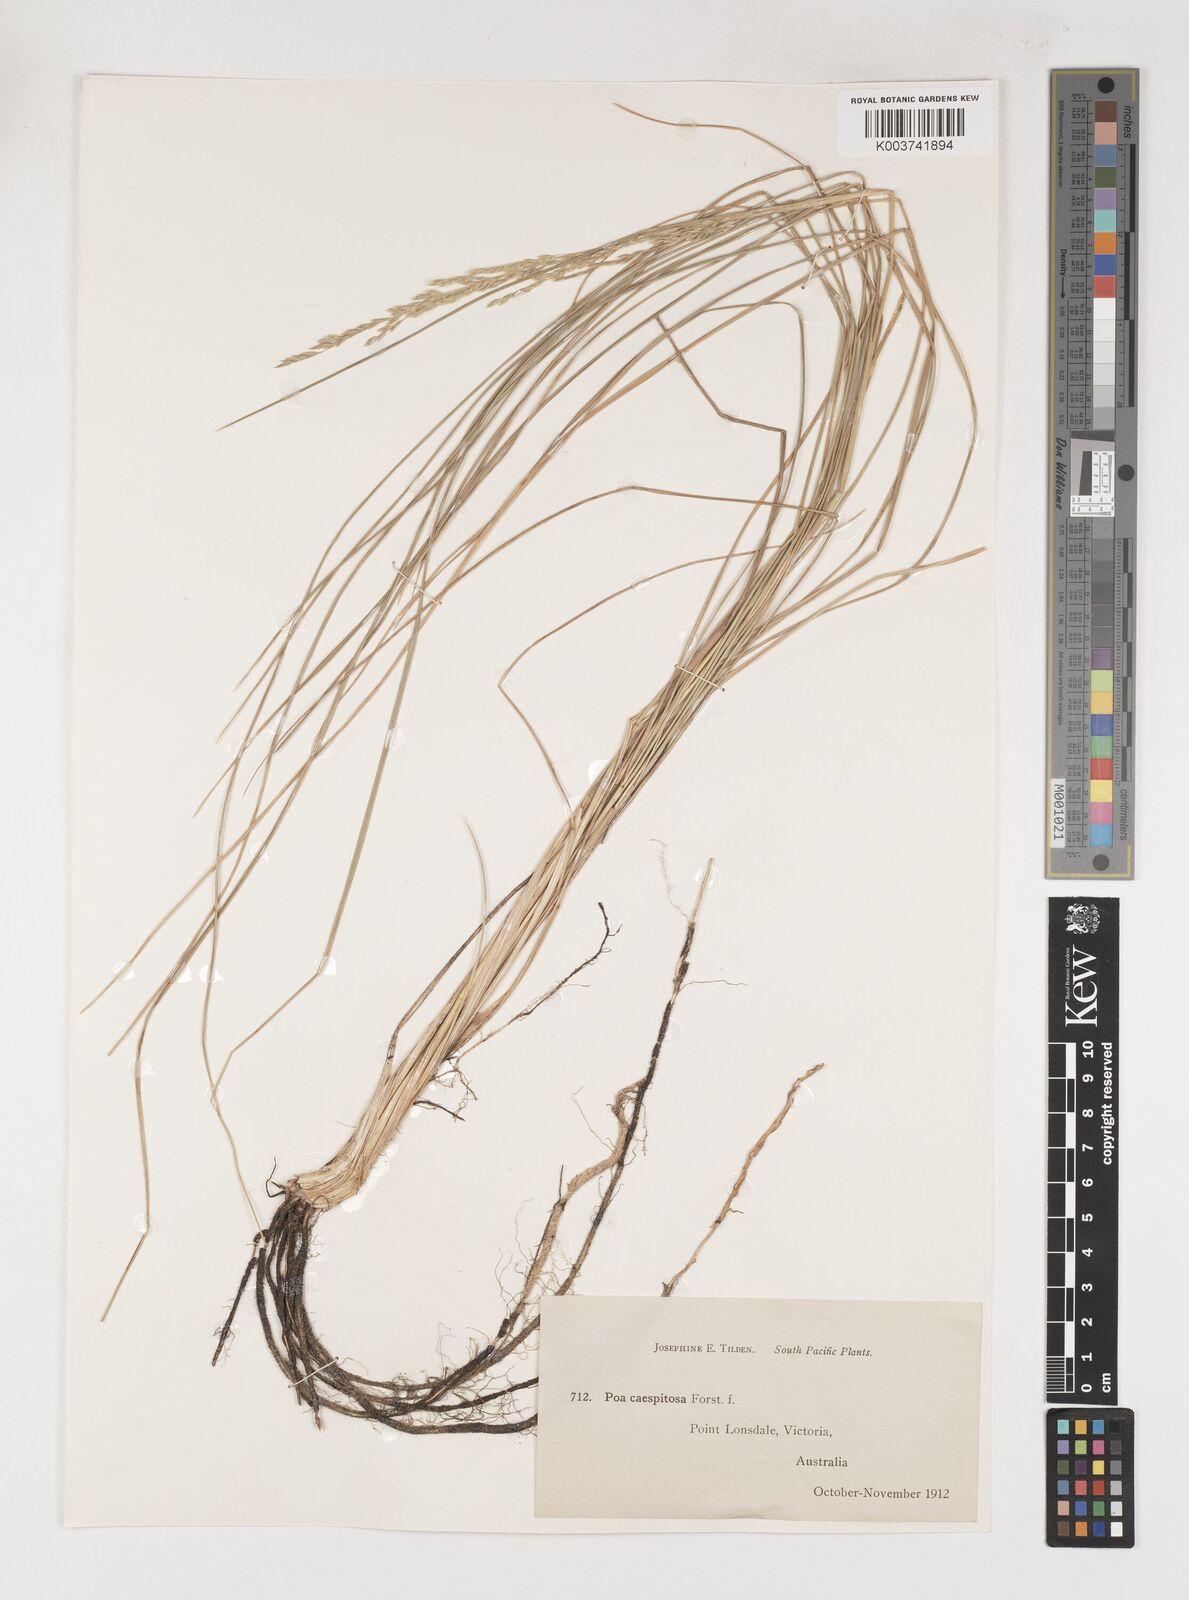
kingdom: Plantae
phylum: Tracheophyta
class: Liliopsida
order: Poales
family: Poaceae
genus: Poa
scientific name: Poa sieberiana
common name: Tussock poa
